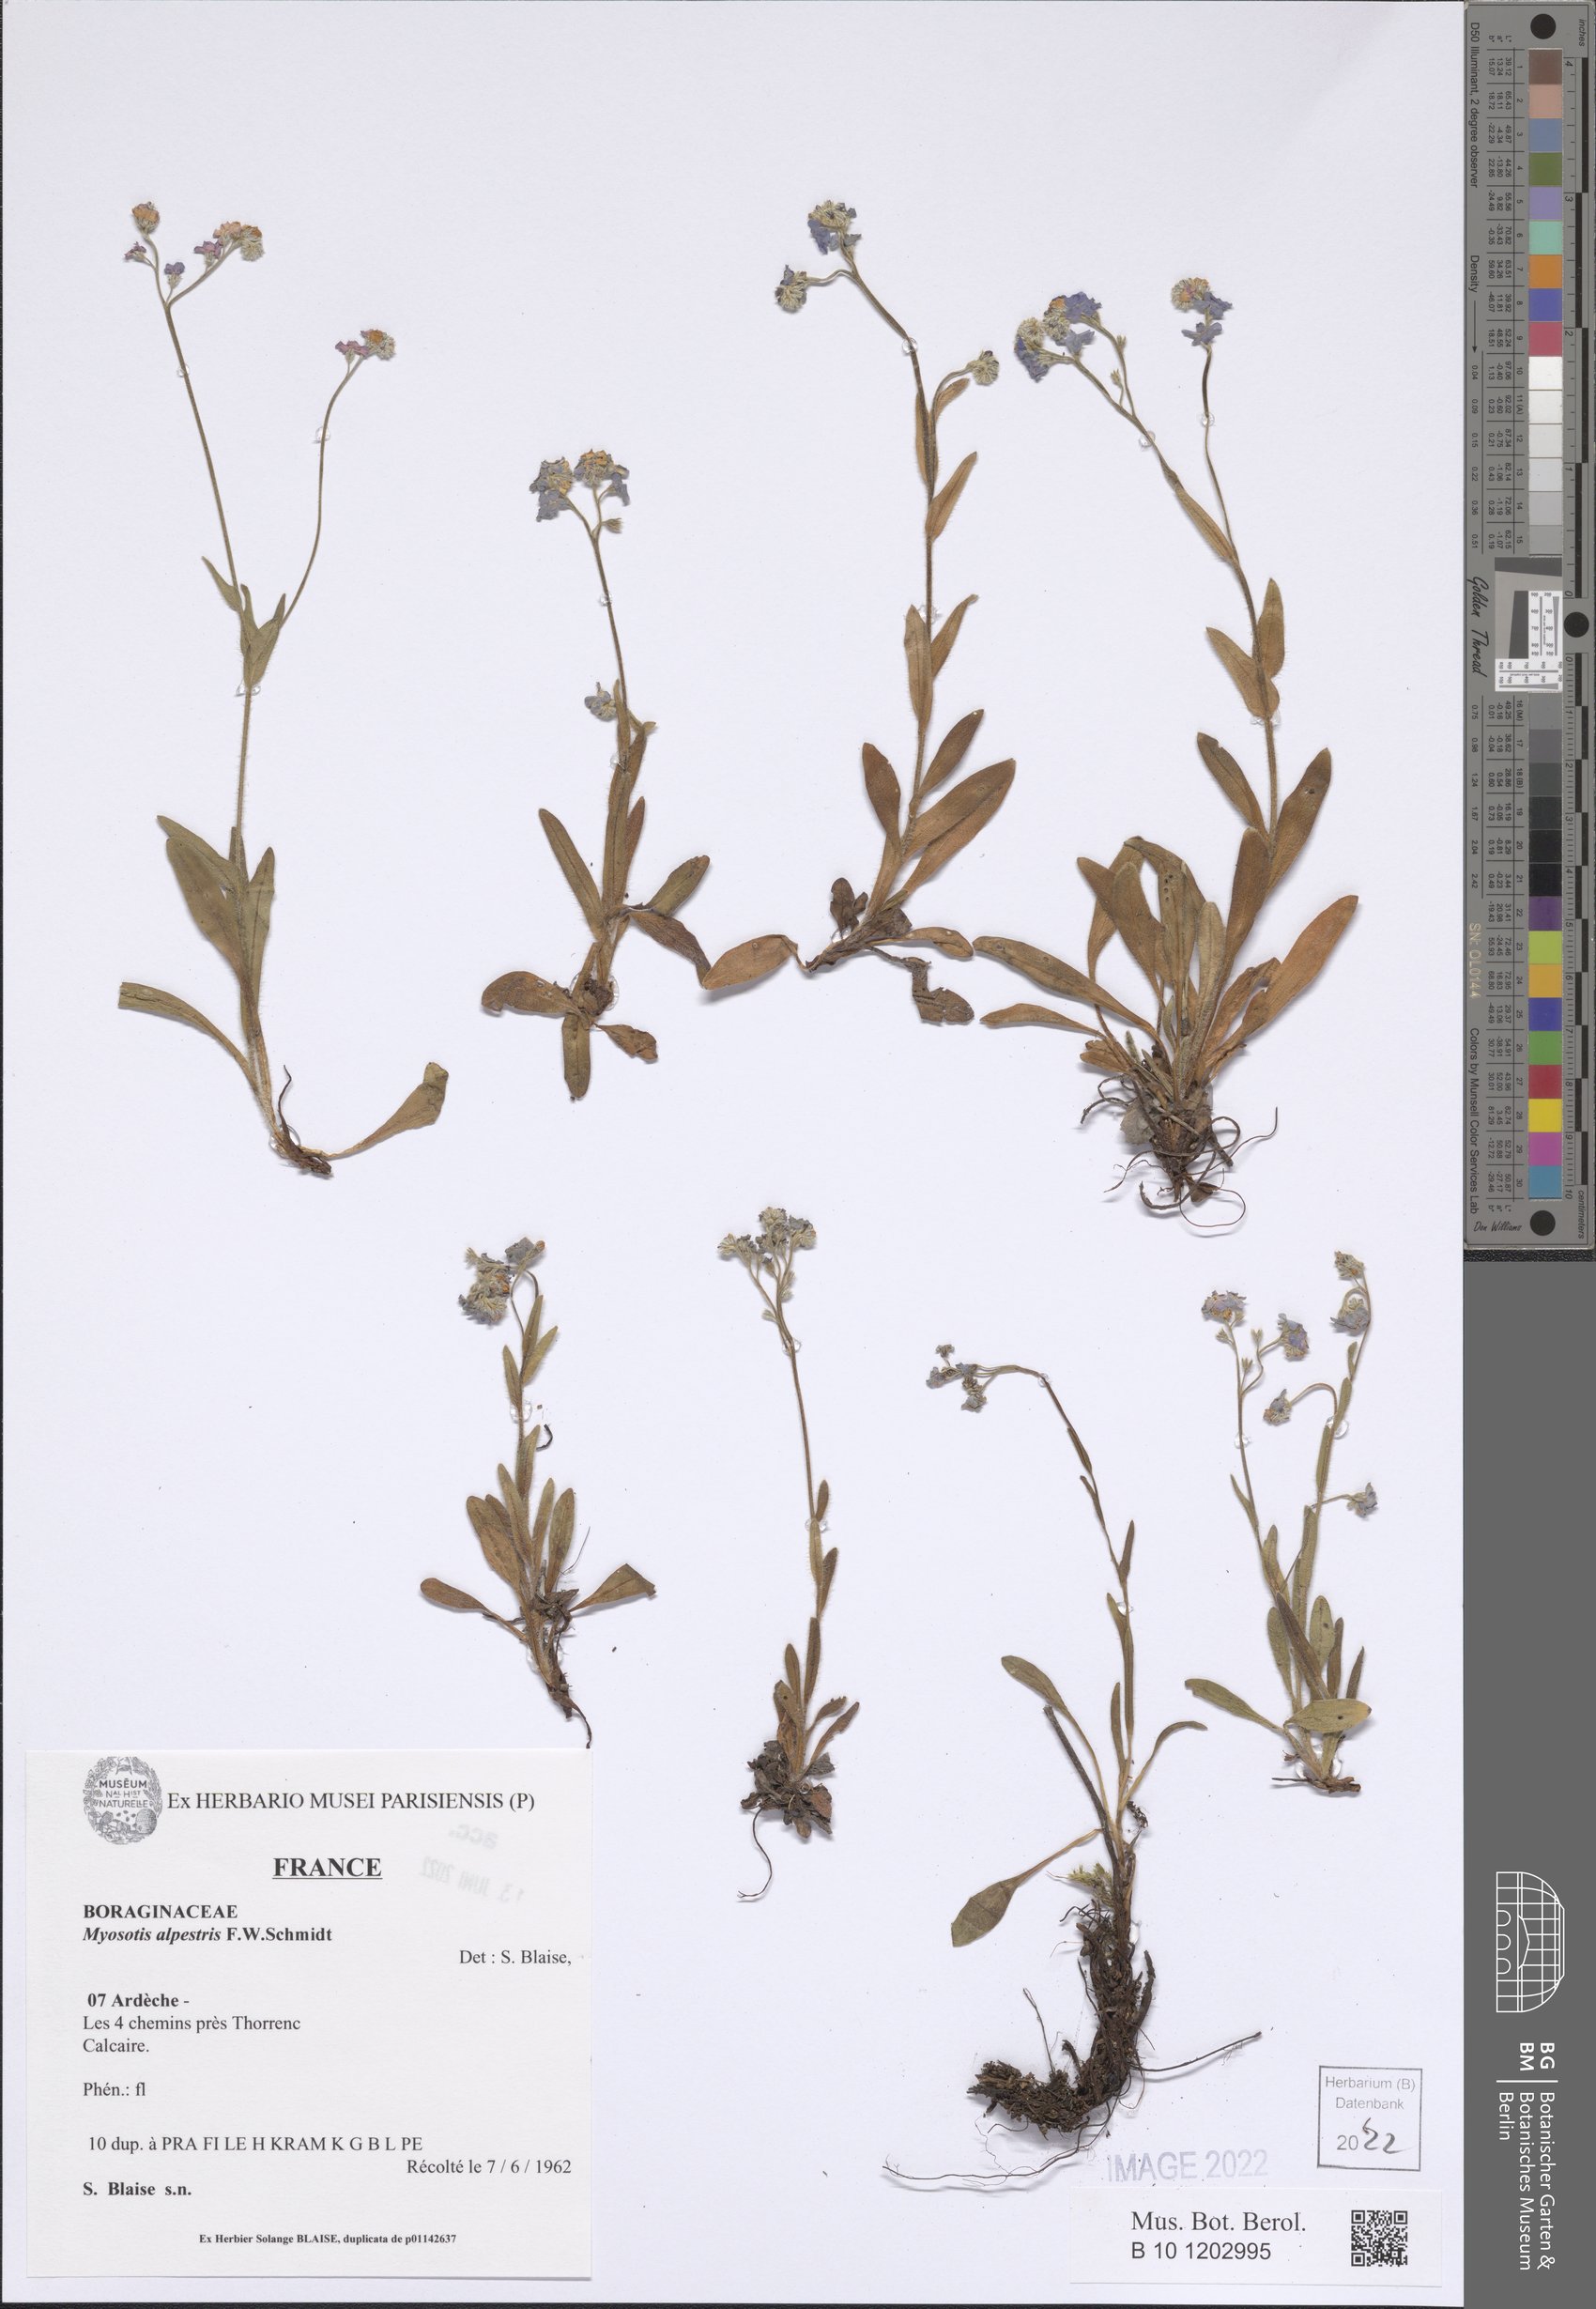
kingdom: Plantae
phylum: Tracheophyta
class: Magnoliopsida
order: Boraginales
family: Boraginaceae
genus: Myosotis
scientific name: Myosotis alpestris
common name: Alpine forget-me-not
